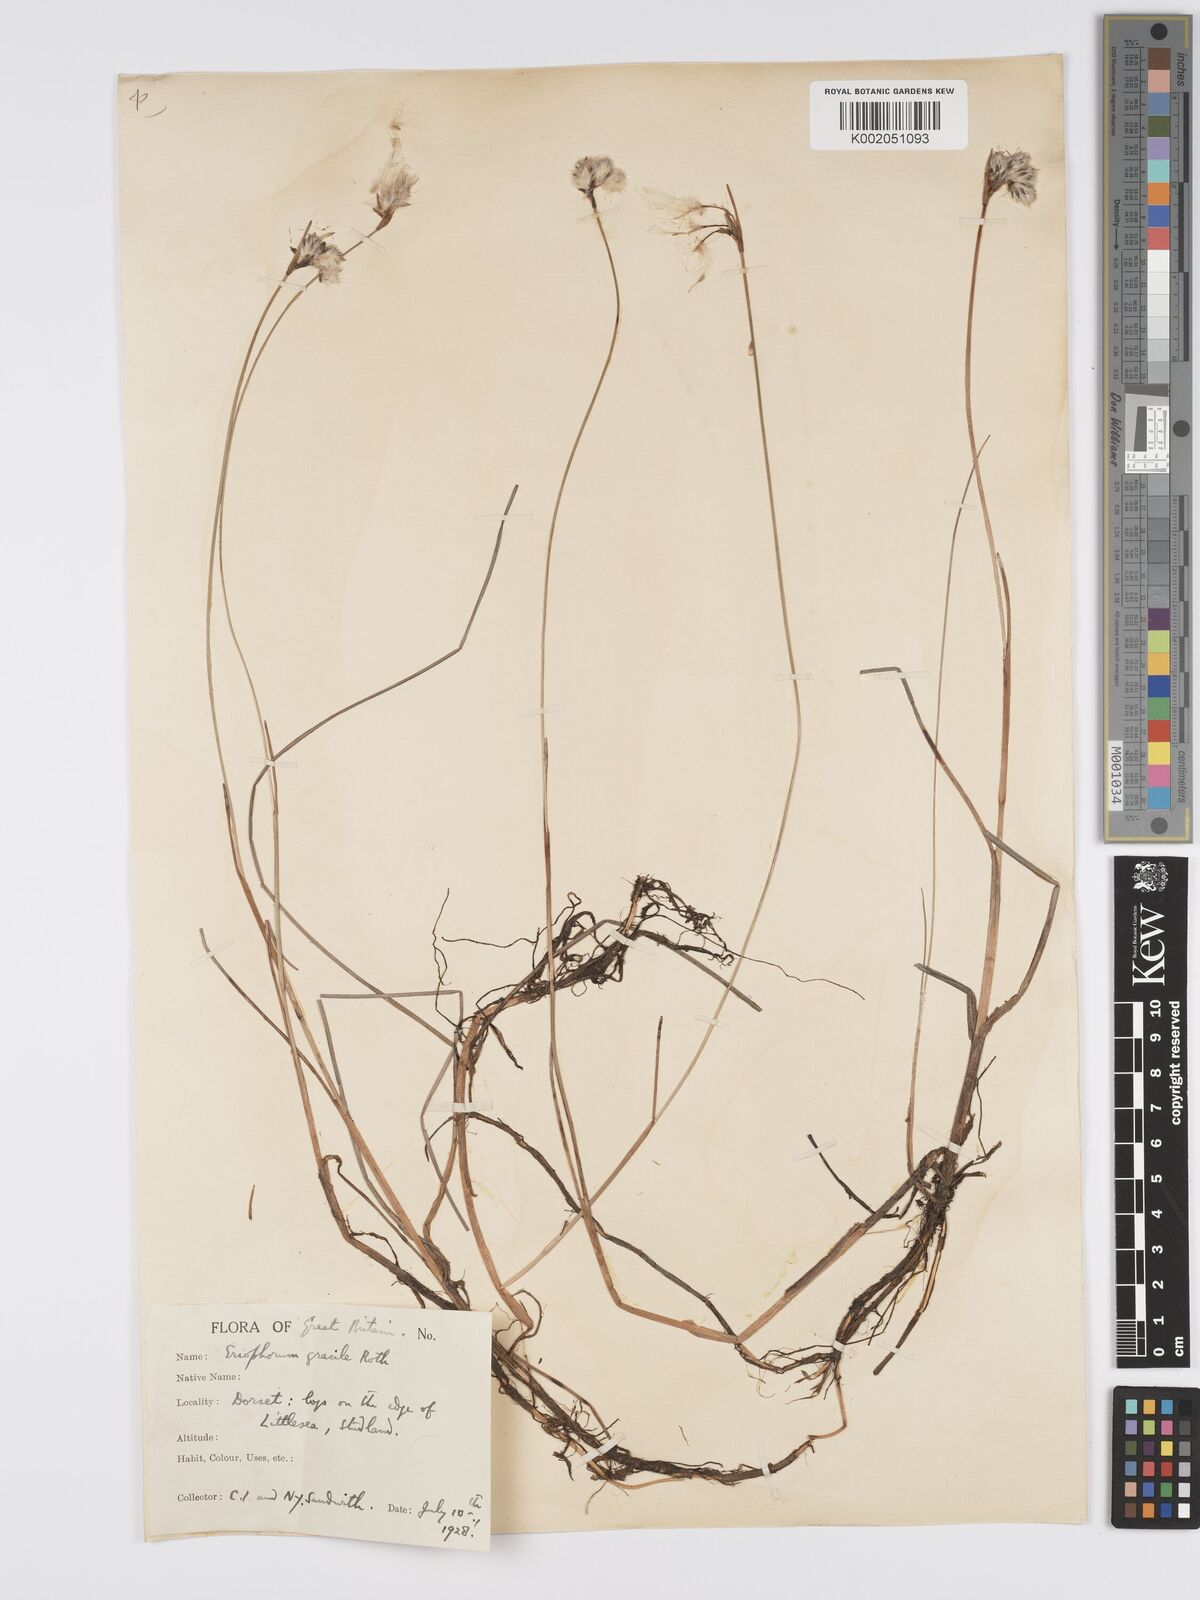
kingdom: Plantae
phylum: Tracheophyta
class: Liliopsida
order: Poales
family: Cyperaceae
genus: Eriophorum
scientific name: Eriophorum gracile
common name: Slender cottongrass
